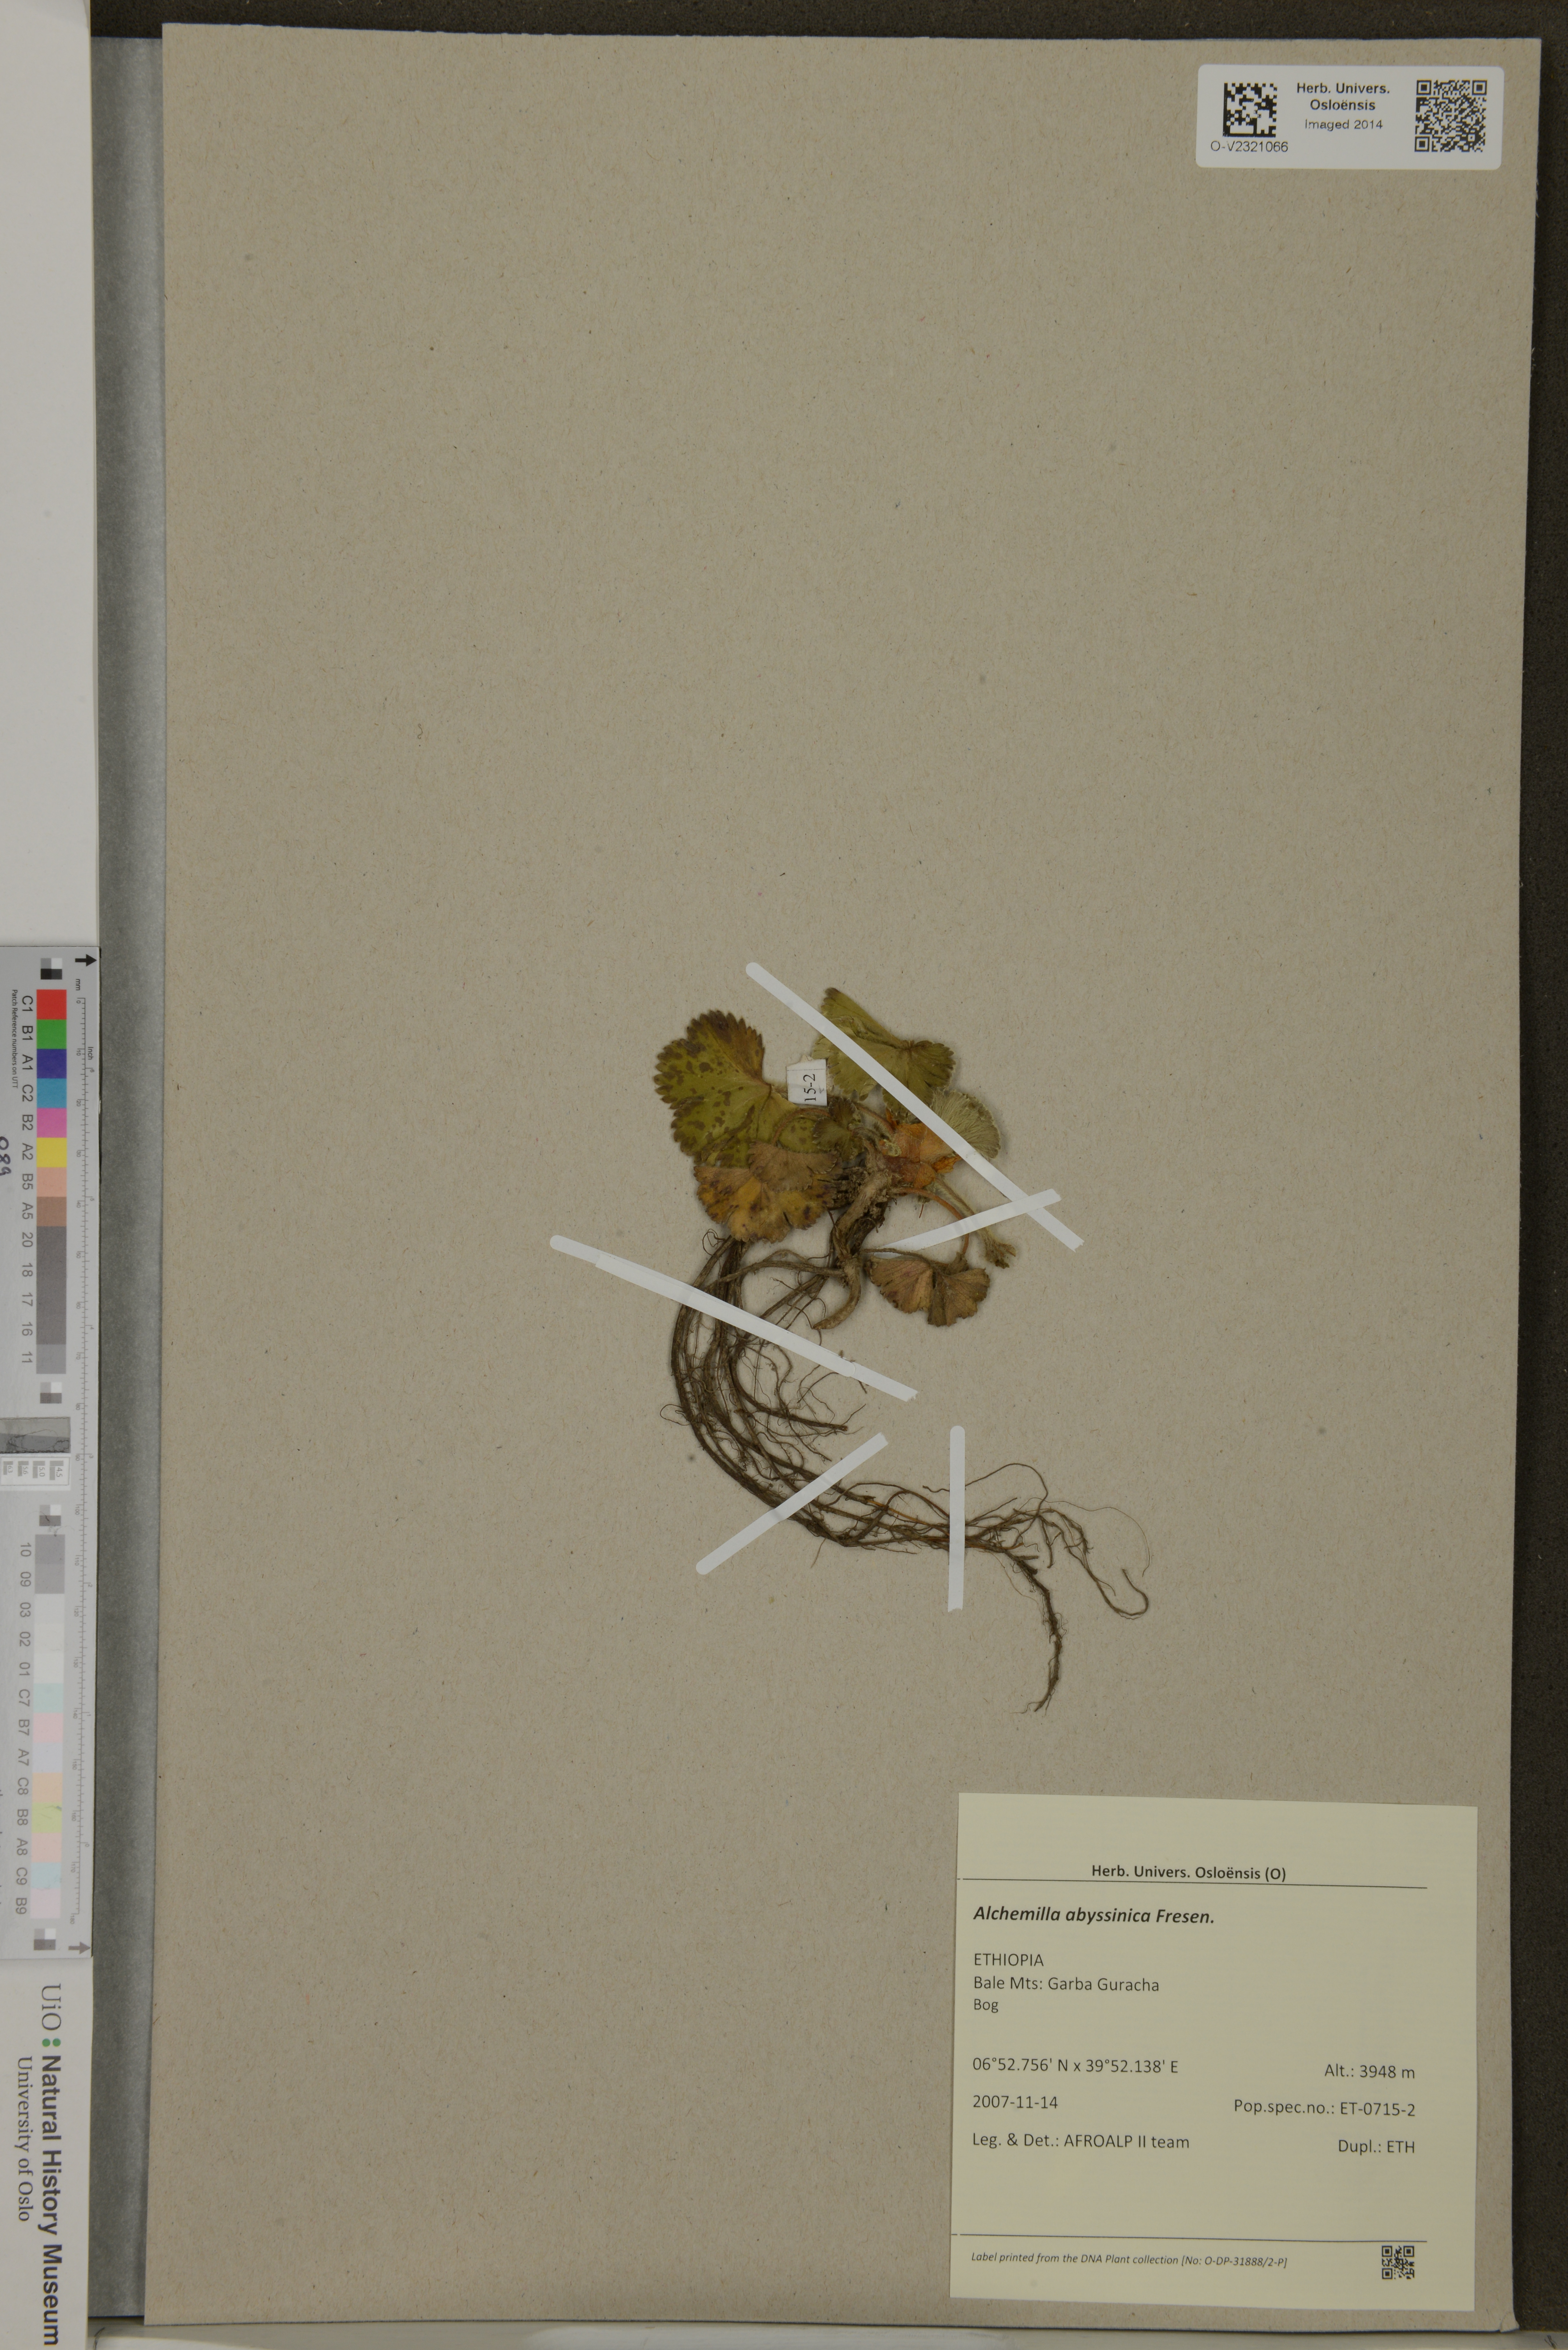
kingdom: Plantae
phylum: Tracheophyta
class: Magnoliopsida
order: Rosales
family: Rosaceae
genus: Alchemilla
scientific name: Alchemilla abyssinica
